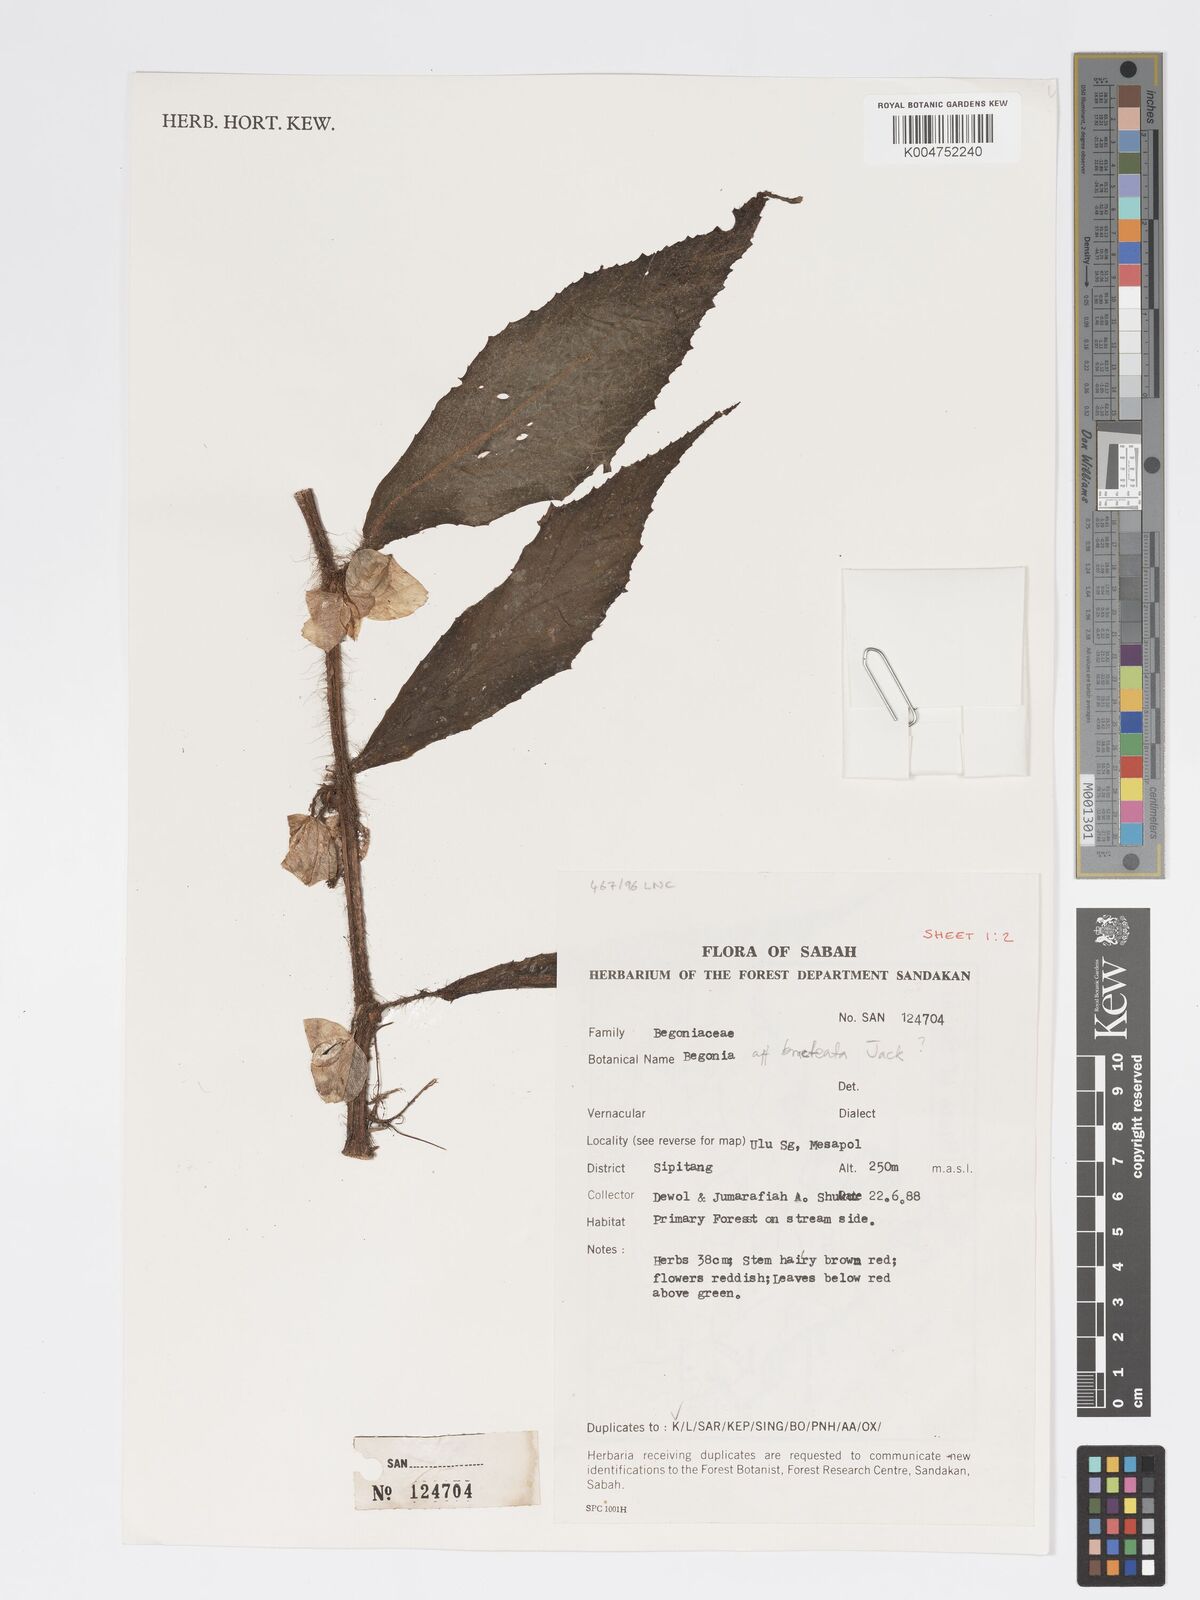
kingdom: Plantae
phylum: Tracheophyta
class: Magnoliopsida
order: Cucurbitales
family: Begoniaceae
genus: Begonia
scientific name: Begonia cauliflora
